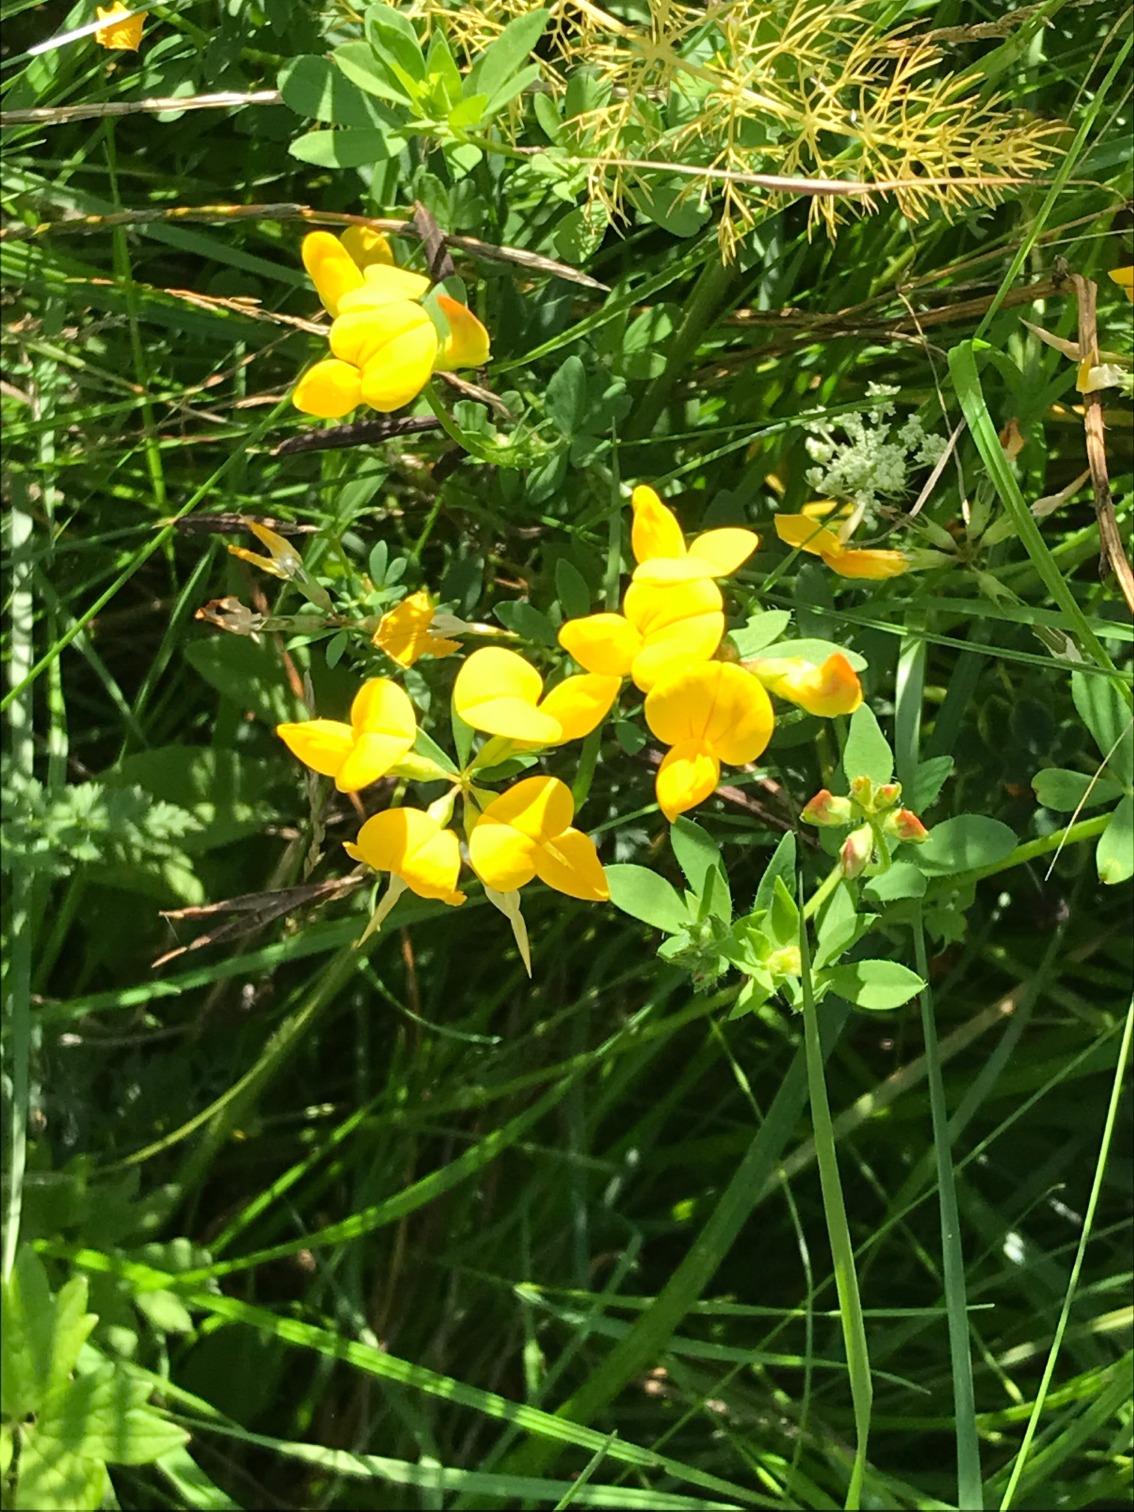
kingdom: Plantae
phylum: Tracheophyta
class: Magnoliopsida
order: Fabales
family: Fabaceae
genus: Lotus
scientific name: Lotus corniculatus
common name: Almindelig kællingetand
